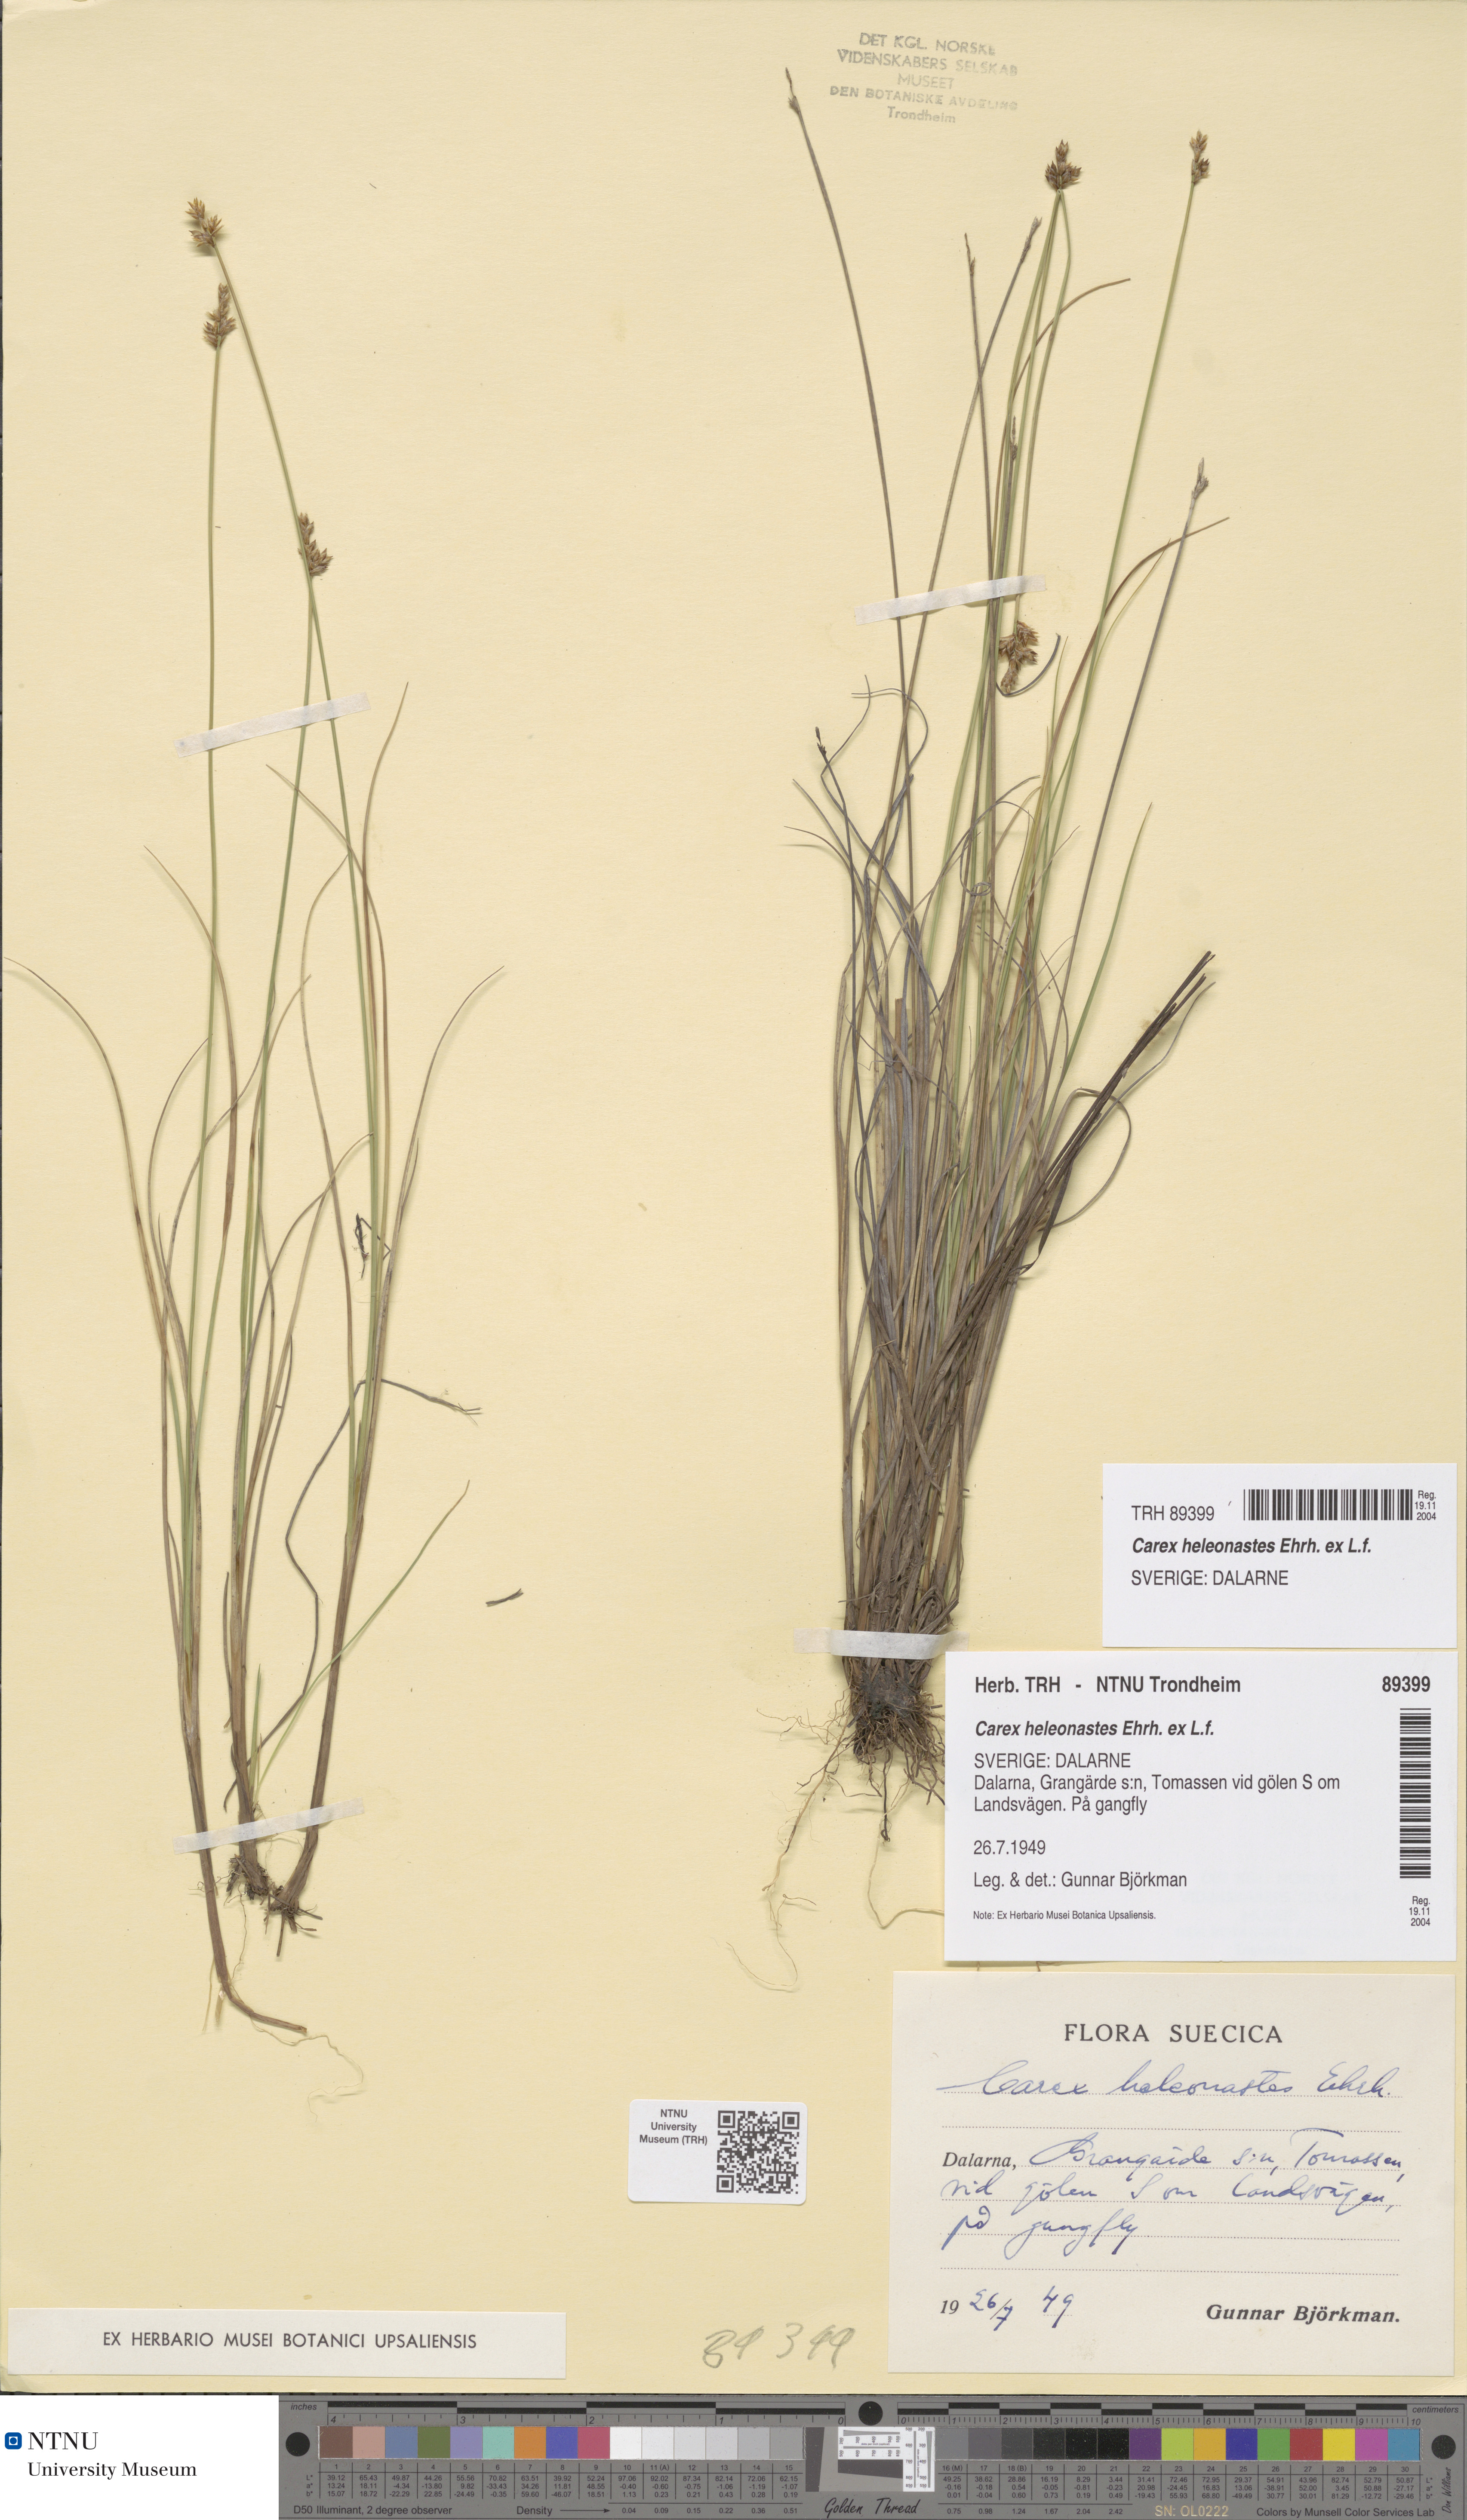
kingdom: Plantae
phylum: Tracheophyta
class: Liliopsida
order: Poales
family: Cyperaceae
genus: Carex
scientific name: Carex heleonastes
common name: Hudson bay sedge
